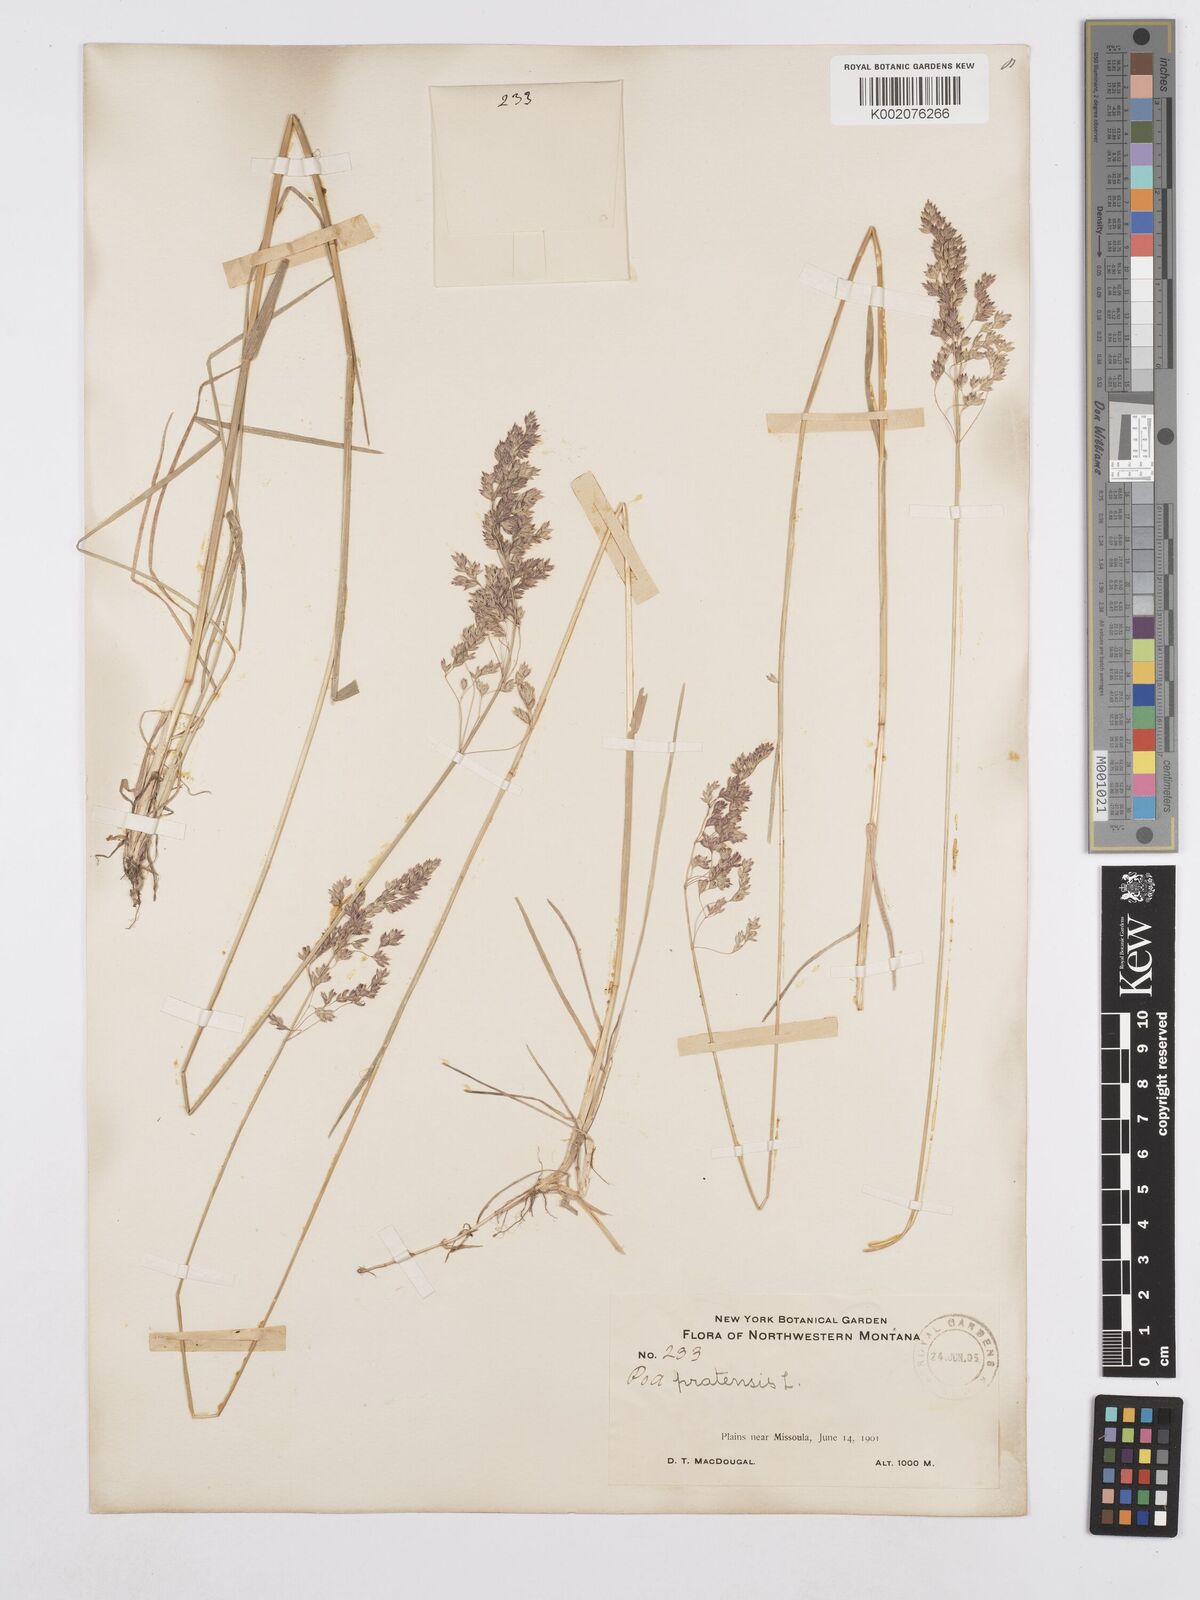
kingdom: Plantae
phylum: Tracheophyta
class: Liliopsida
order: Poales
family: Poaceae
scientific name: Poaceae
